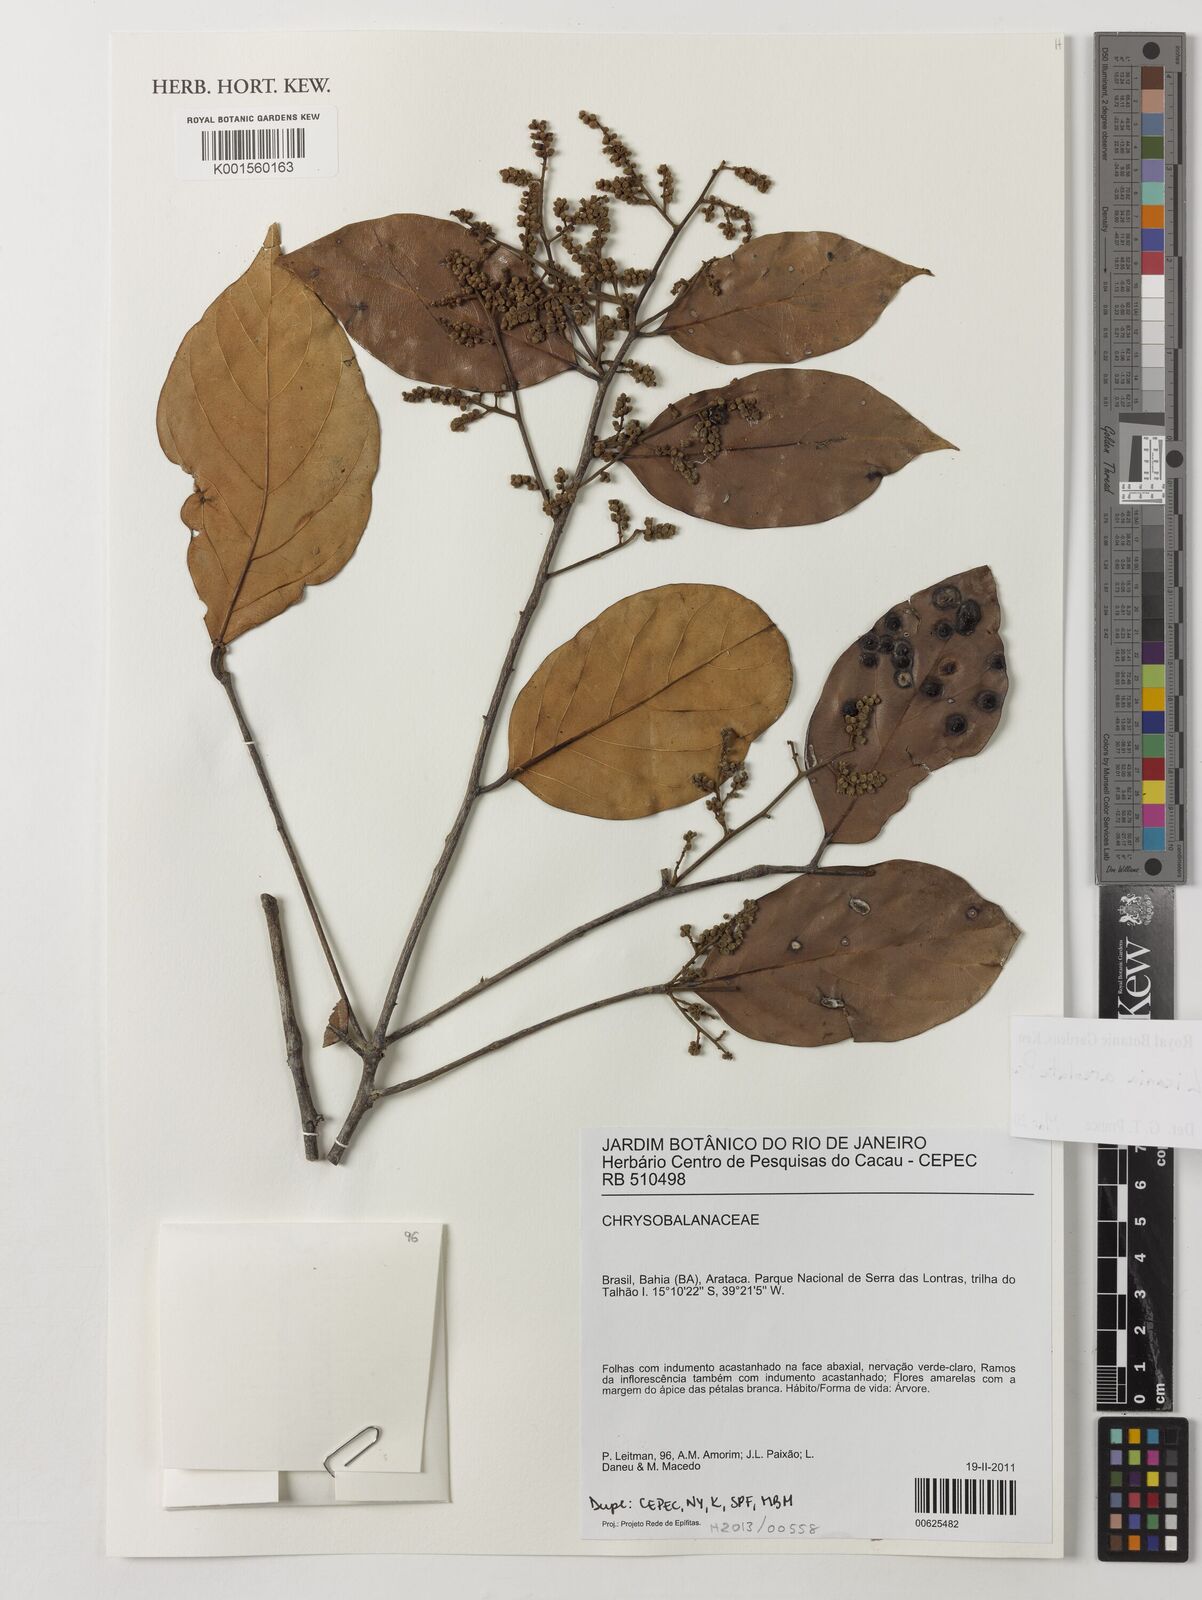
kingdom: Plantae
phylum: Tracheophyta
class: Magnoliopsida
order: Malpighiales
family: Chrysobalanaceae
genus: Licania
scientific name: Licania areolata
